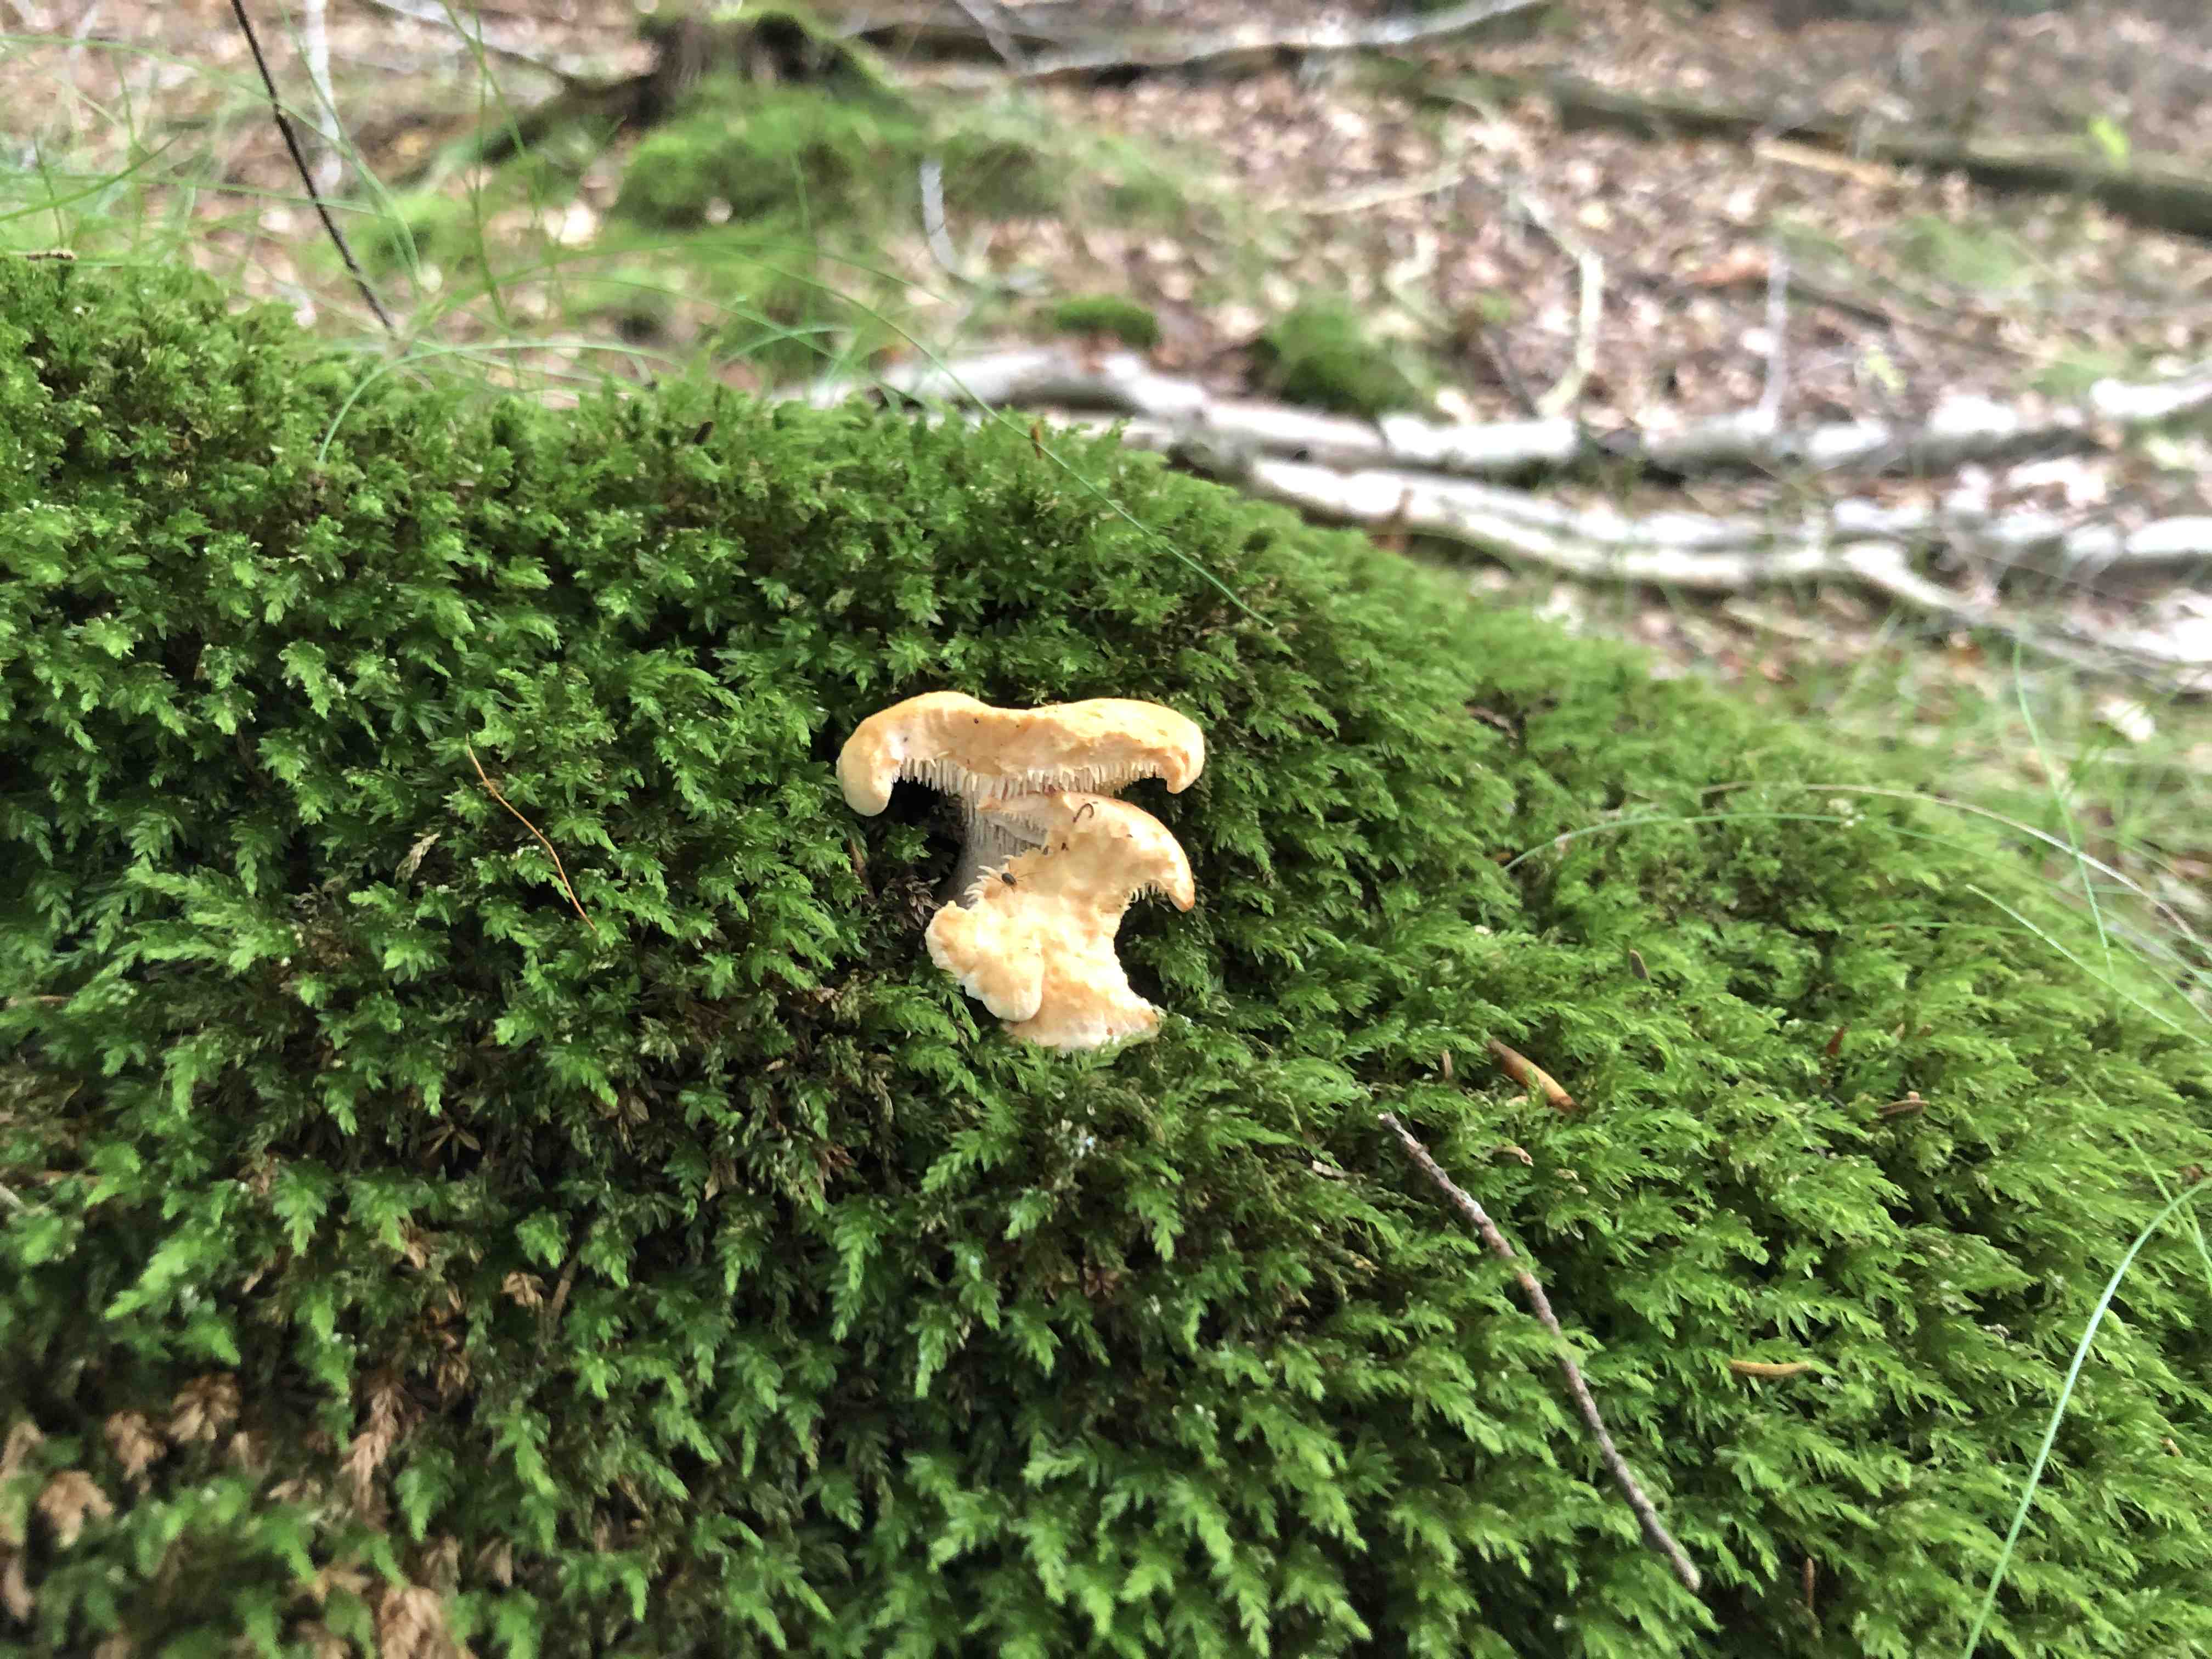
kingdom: Fungi
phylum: Basidiomycota
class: Agaricomycetes
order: Cantharellales
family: Hydnaceae
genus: Hydnum
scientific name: Hydnum repandum
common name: almindelig pigsvamp
